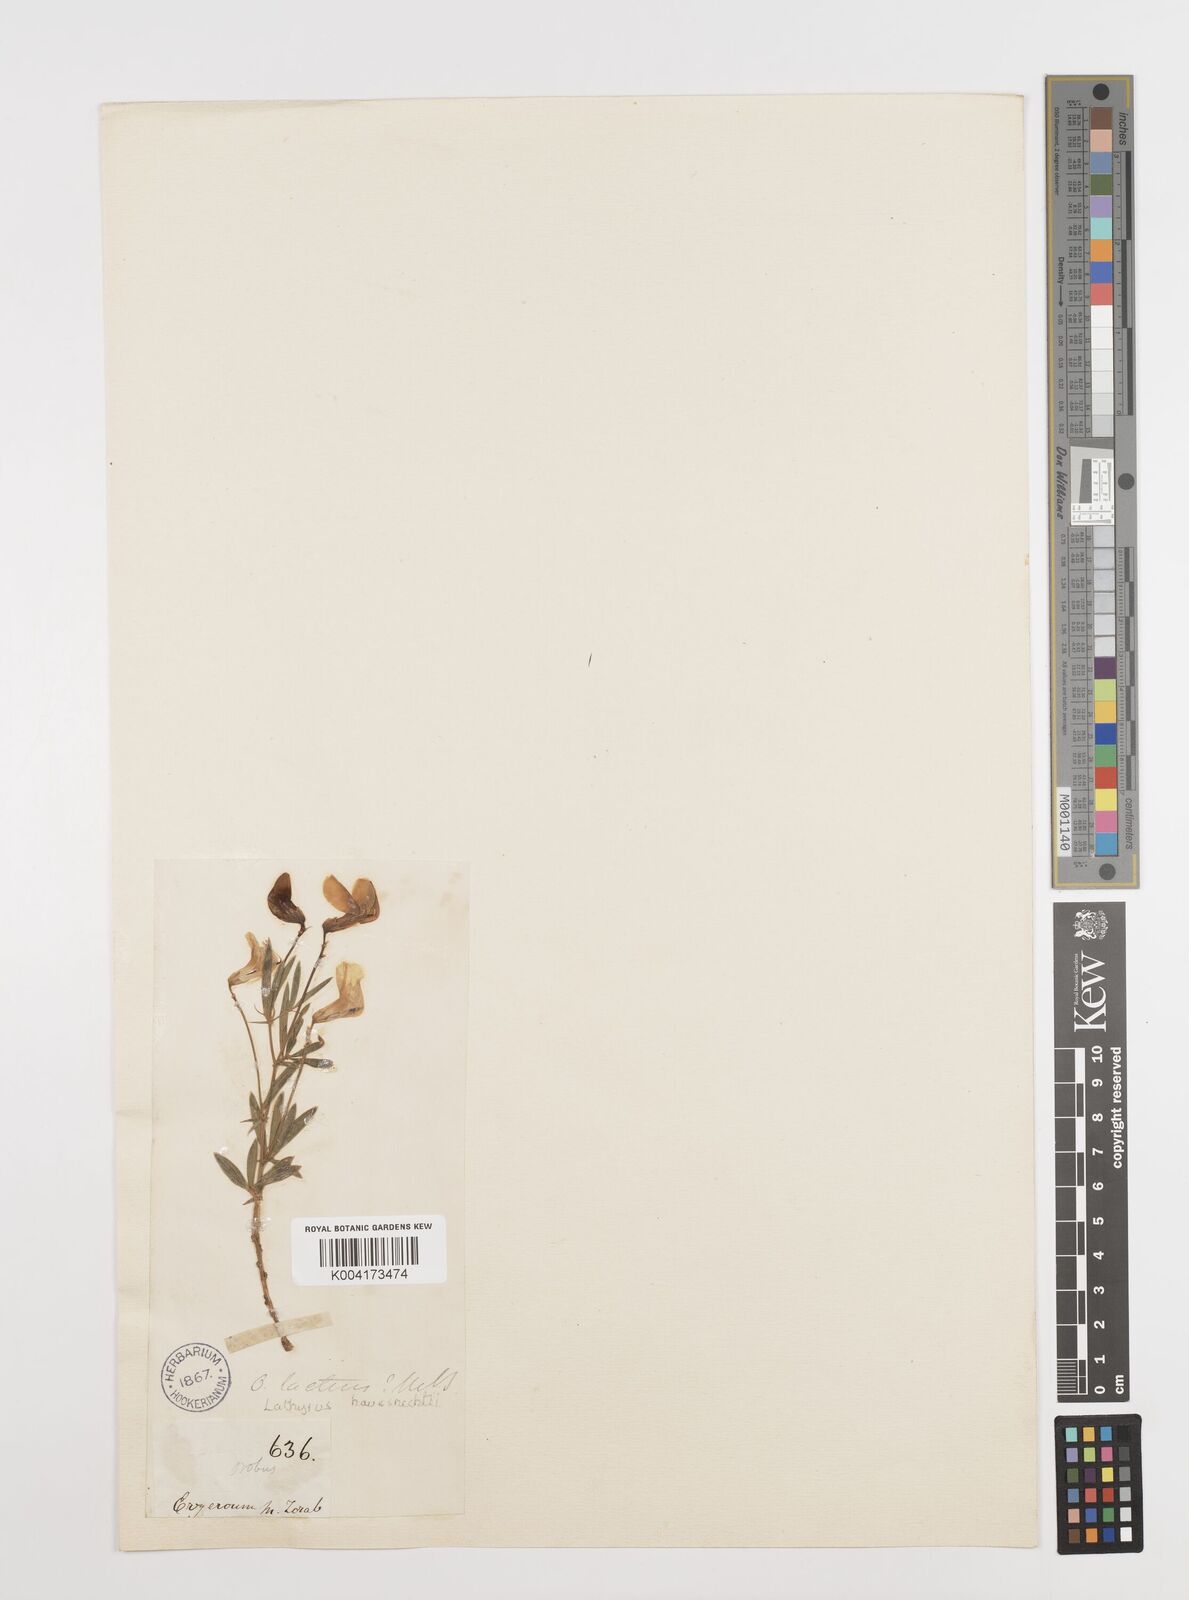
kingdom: Plantae
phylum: Tracheophyta
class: Magnoliopsida
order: Fabales
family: Fabaceae
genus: Lathyrus
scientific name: Lathyrus brachypterus
